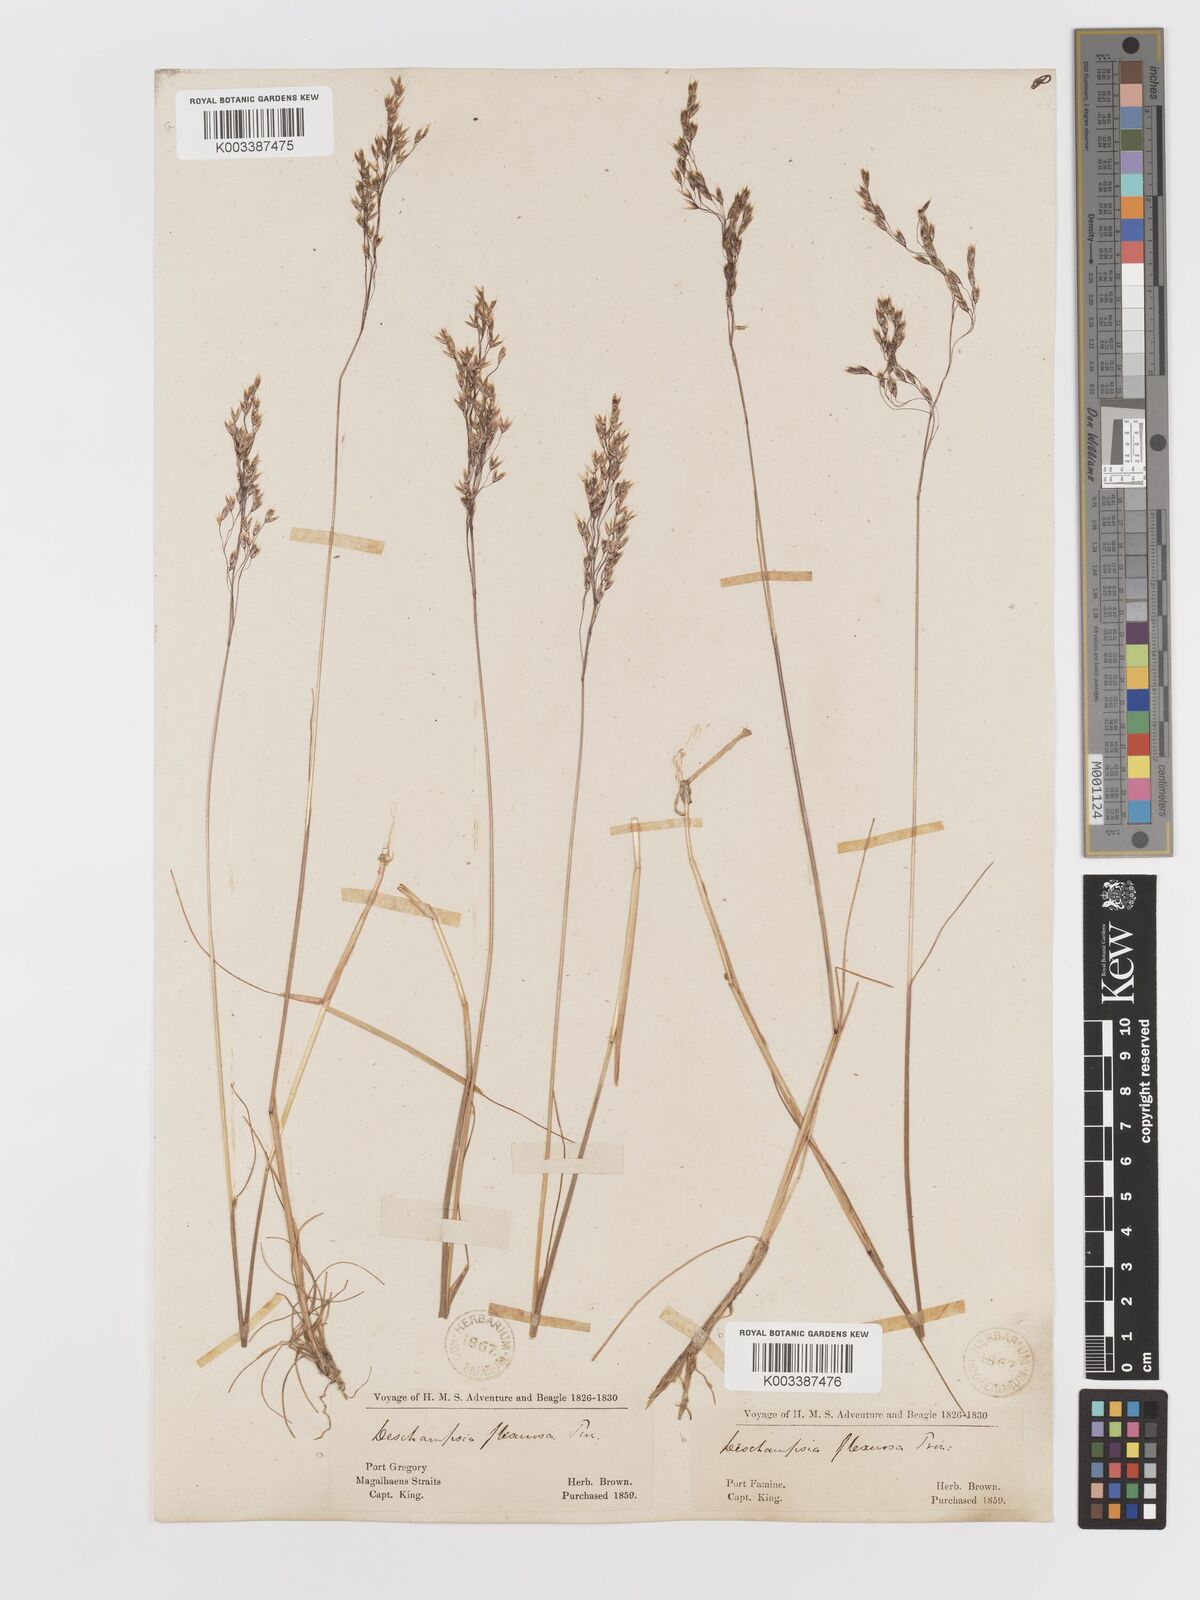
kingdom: Plantae
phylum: Tracheophyta
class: Liliopsida
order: Poales
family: Poaceae
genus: Avenella
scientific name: Avenella flexuosa
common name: Wavy hairgrass
